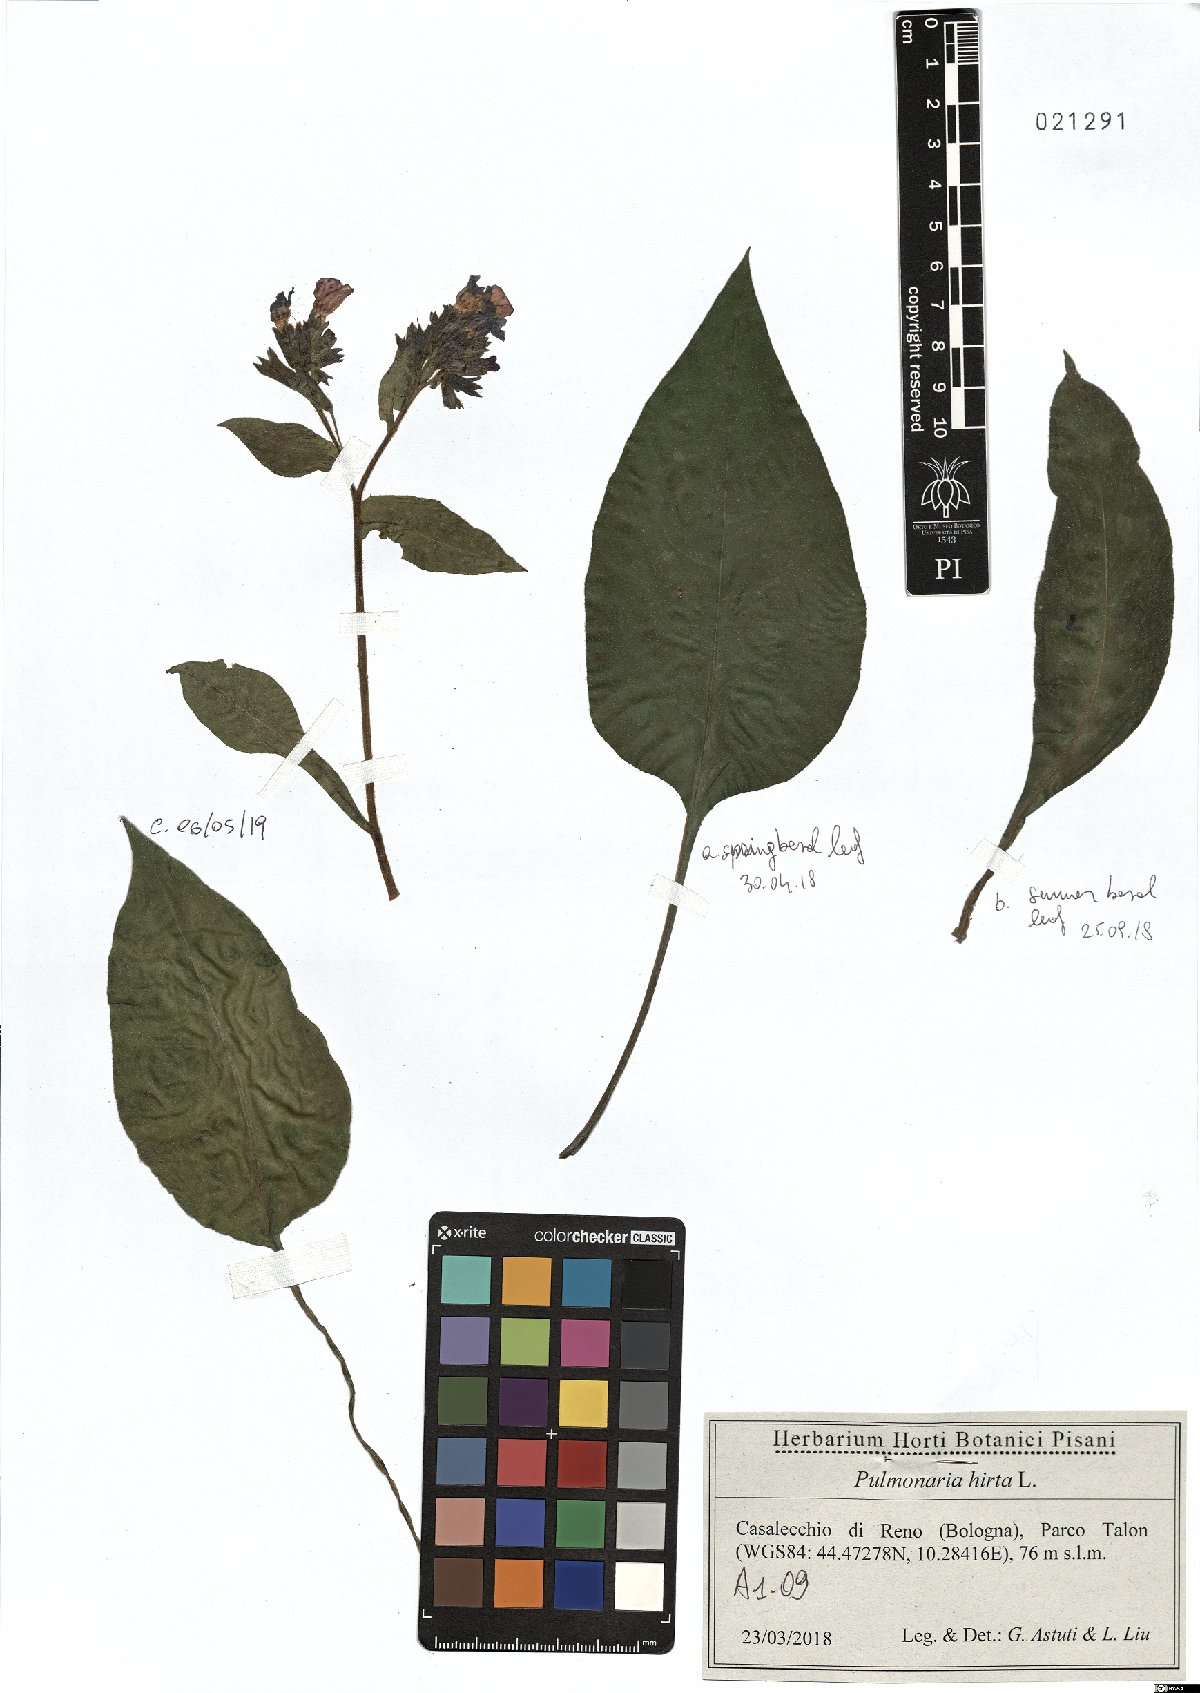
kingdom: Plantae
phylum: Tracheophyta
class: Magnoliopsida
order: Boraginales
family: Boraginaceae
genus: Pulmonaria
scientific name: Pulmonaria hirta
